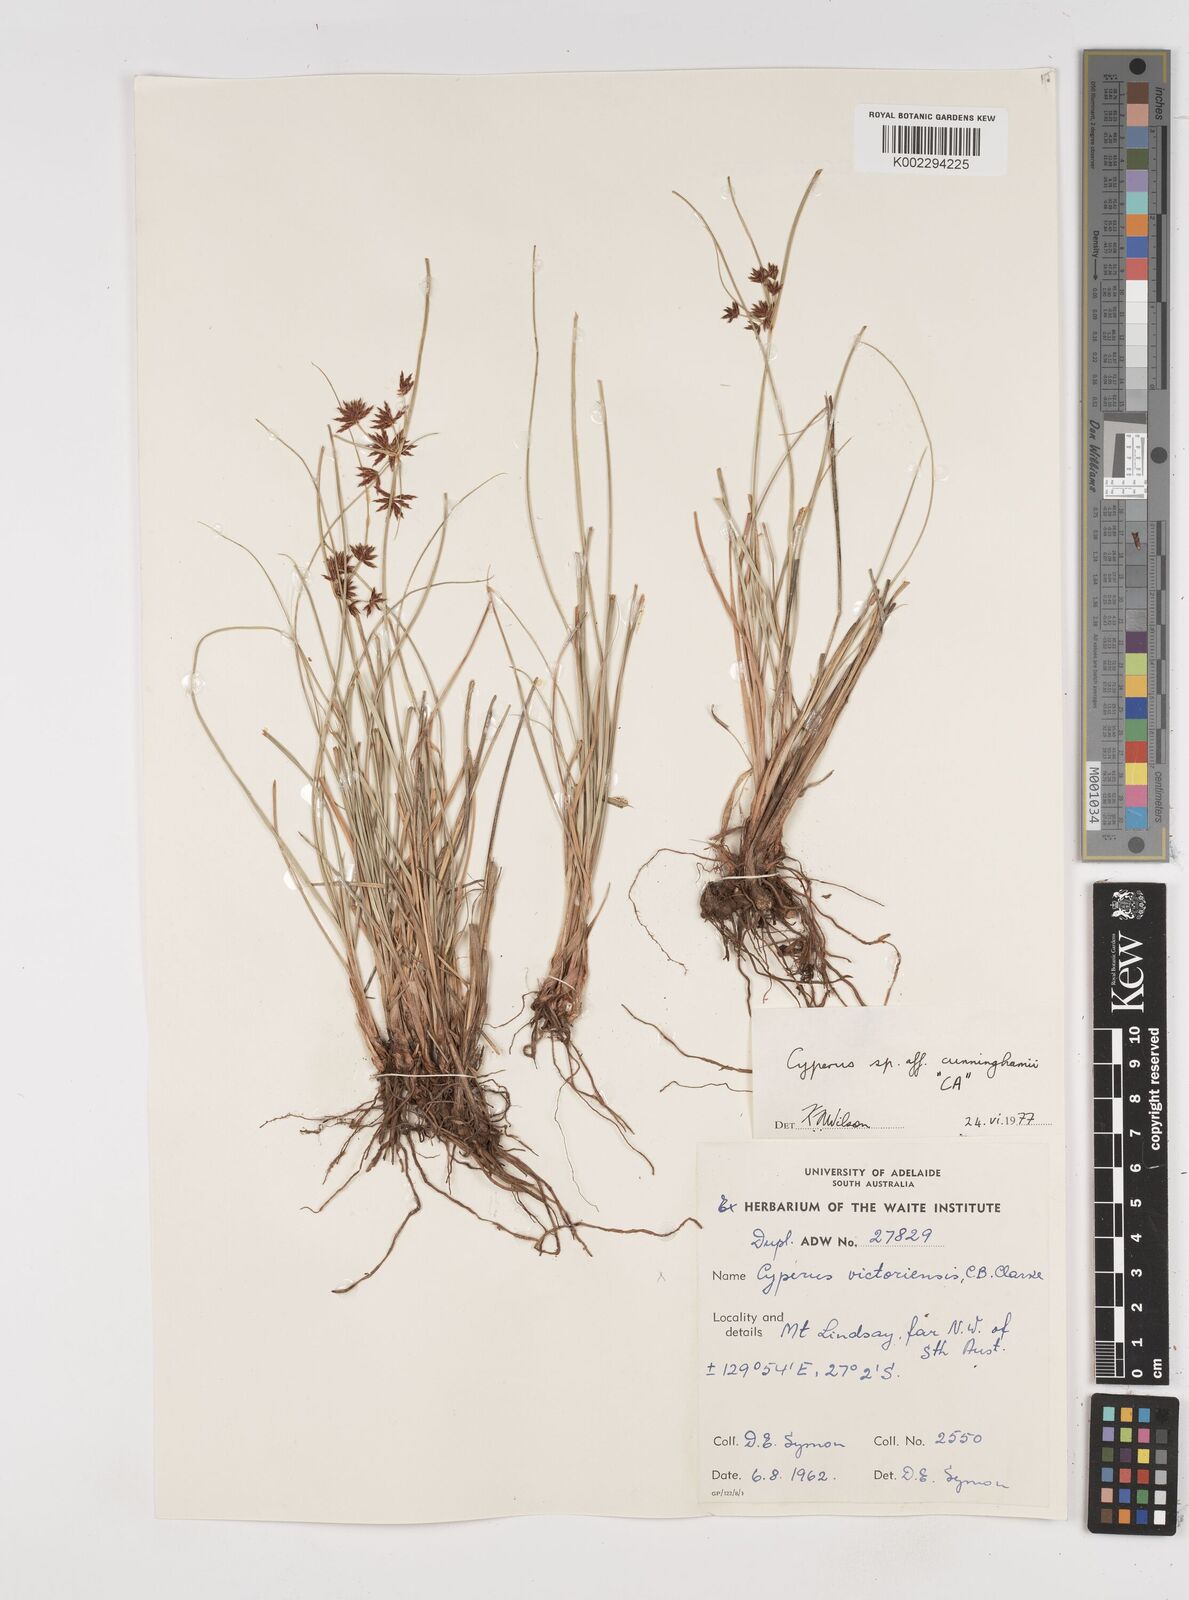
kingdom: Plantae
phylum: Tracheophyta
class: Liliopsida
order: Poales
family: Cyperaceae
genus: Cyperus
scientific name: Cyperus cunninghamii
